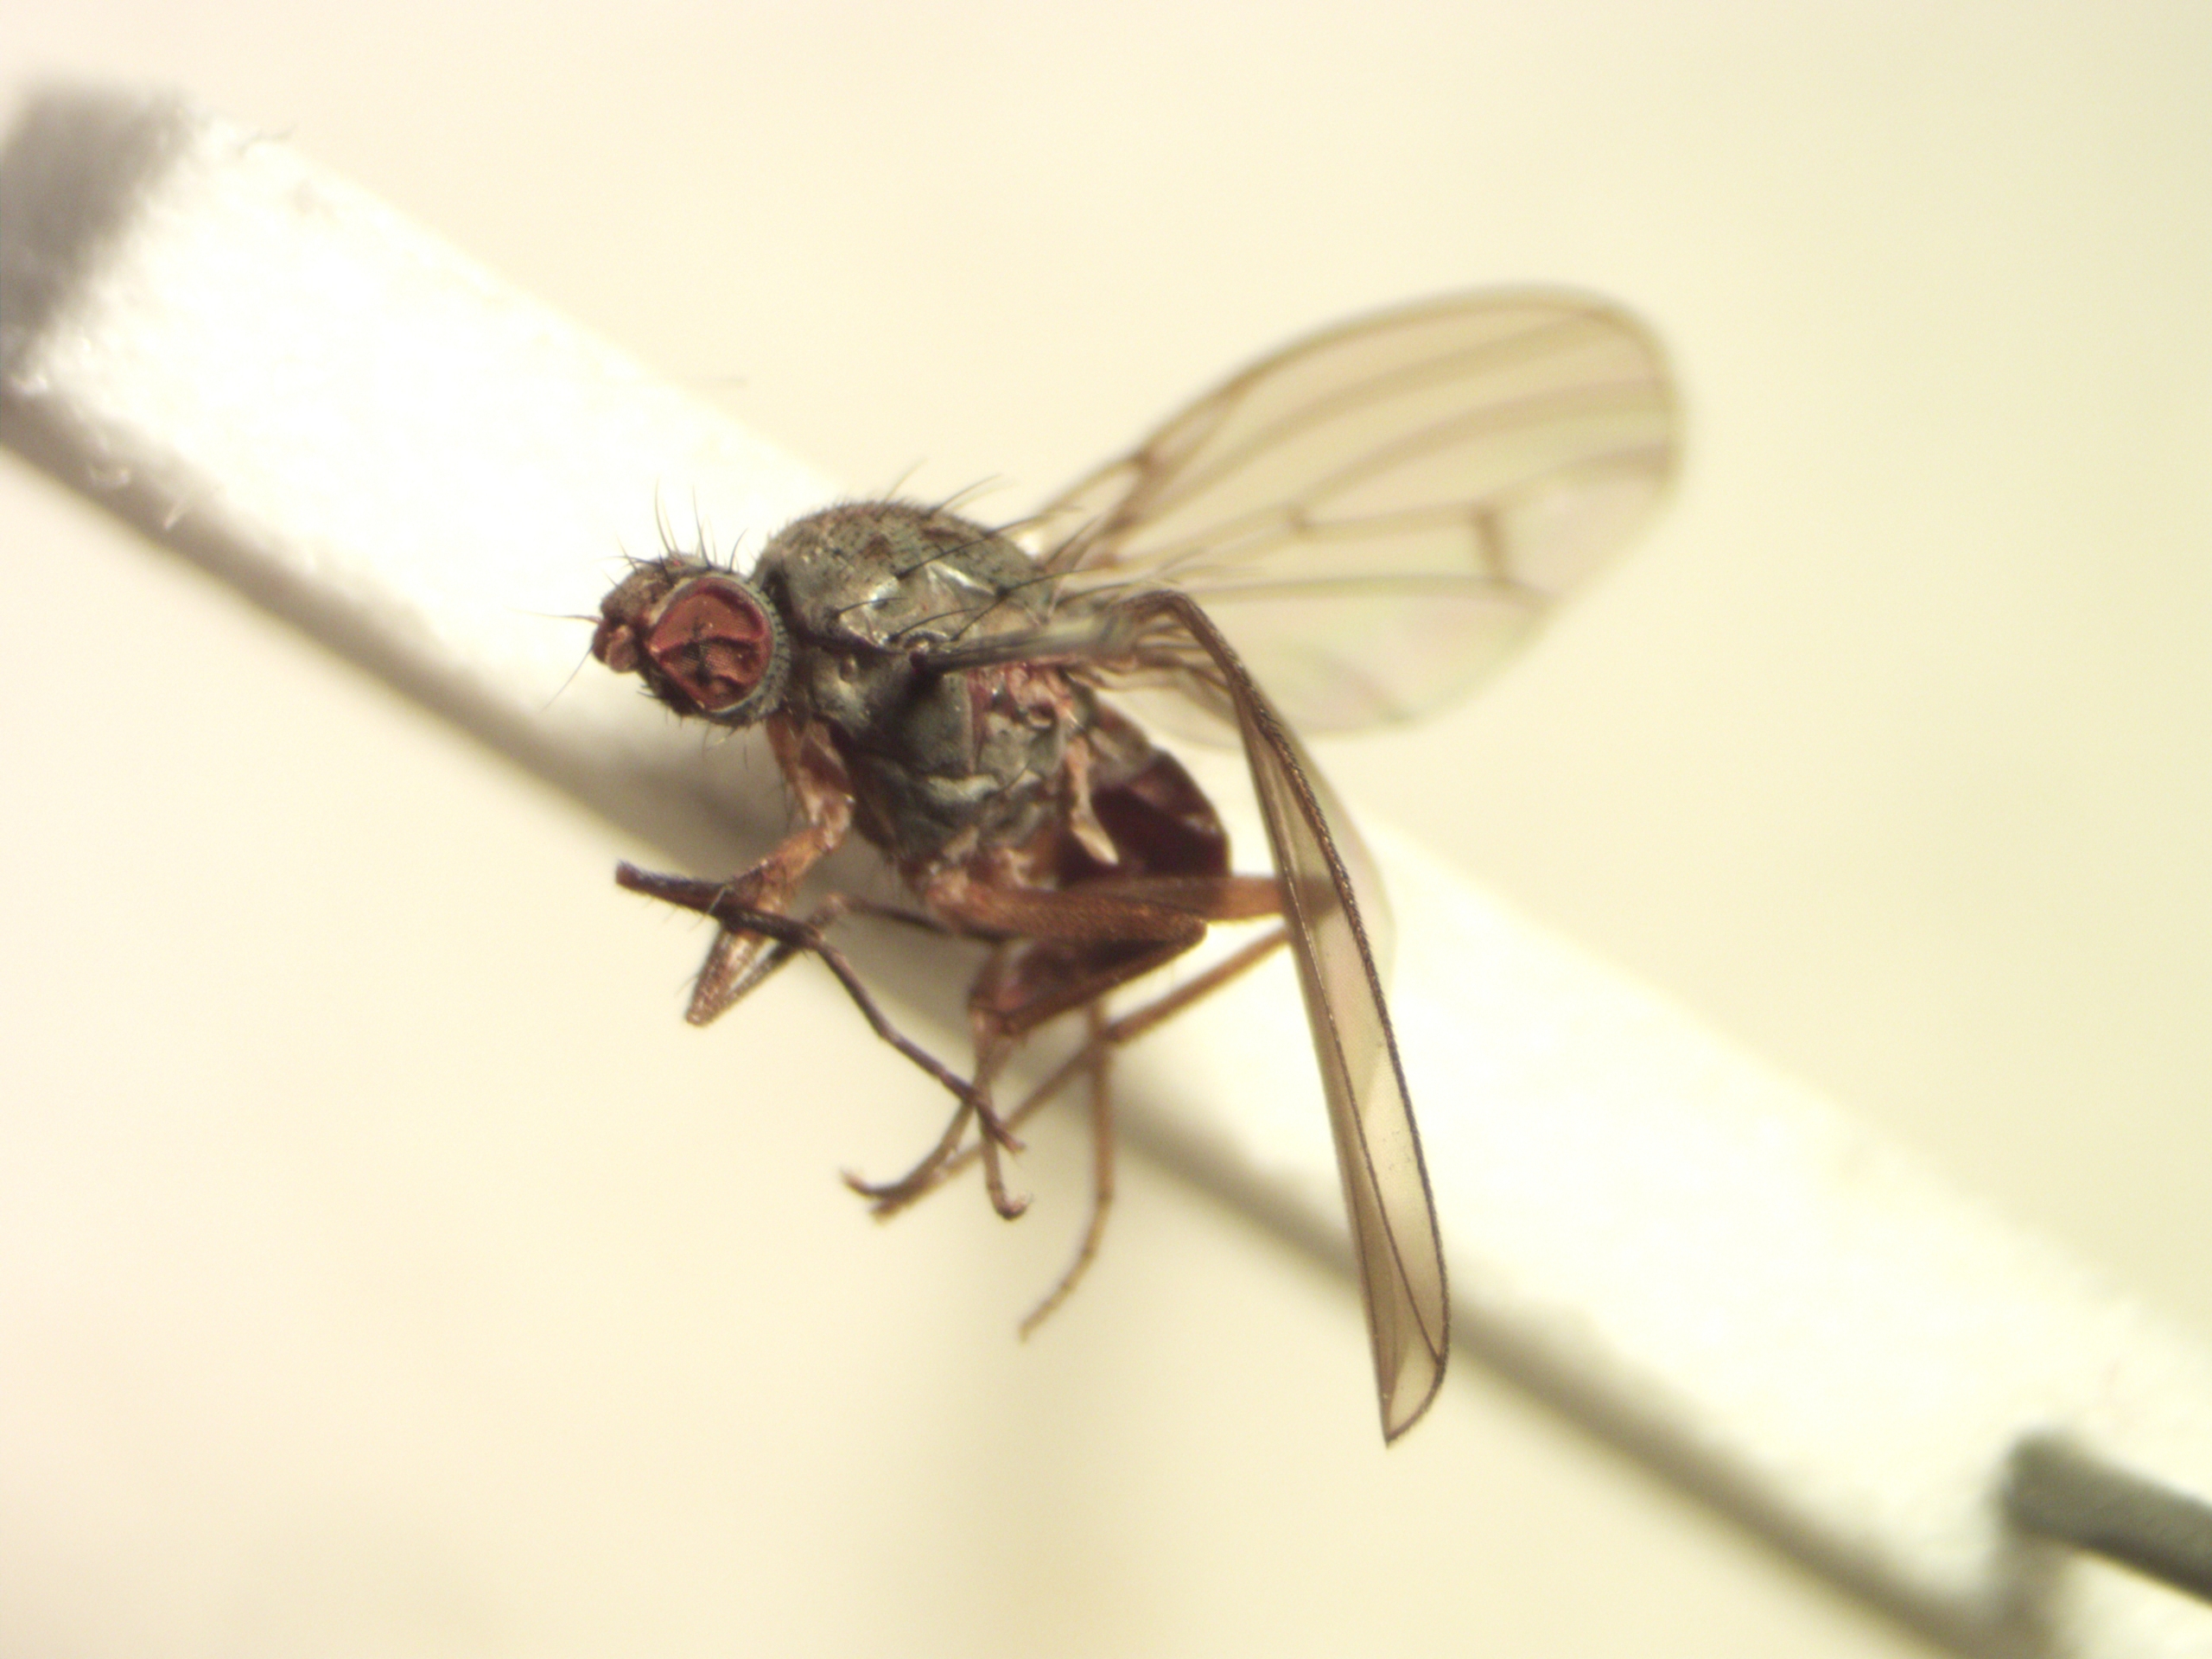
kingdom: Animalia
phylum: Arthropoda
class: Insecta
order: Diptera
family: Heleomyzidae
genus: Tephrochlamys
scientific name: Tephrochlamys tarsalis
